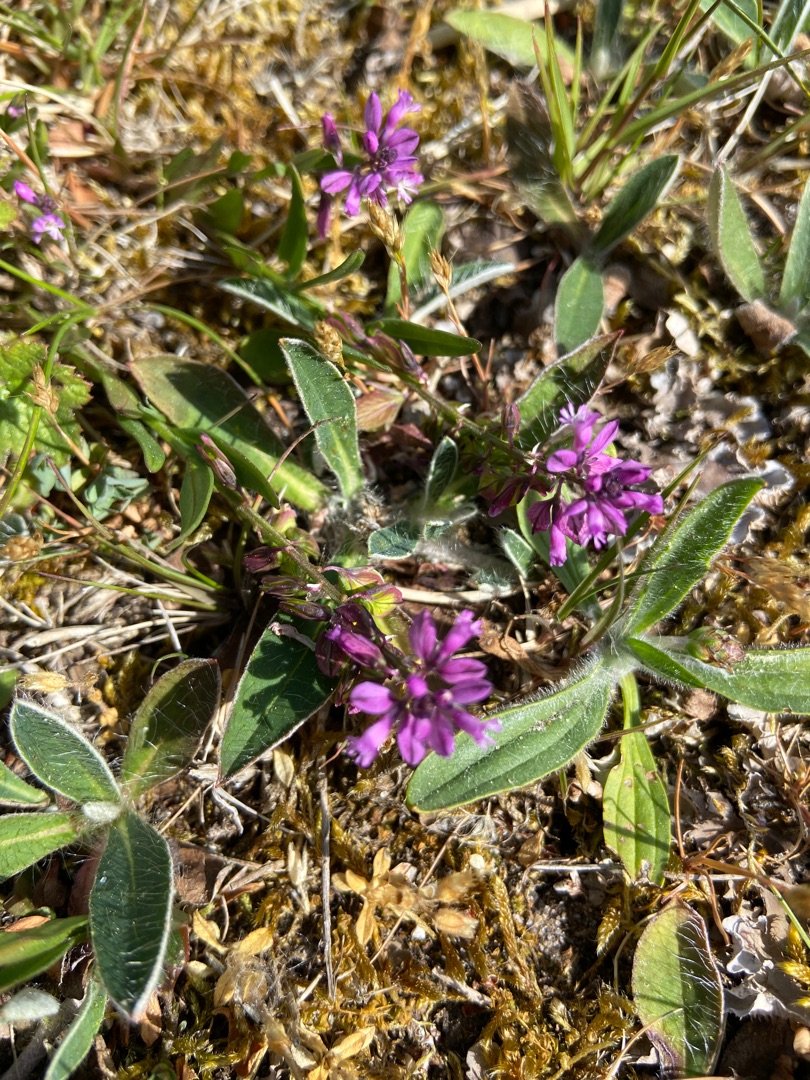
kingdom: Plantae
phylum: Tracheophyta
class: Magnoliopsida
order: Fabales
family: Polygalaceae
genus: Polygala
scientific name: Polygala vulgaris
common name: Almindelig mælkeurt
